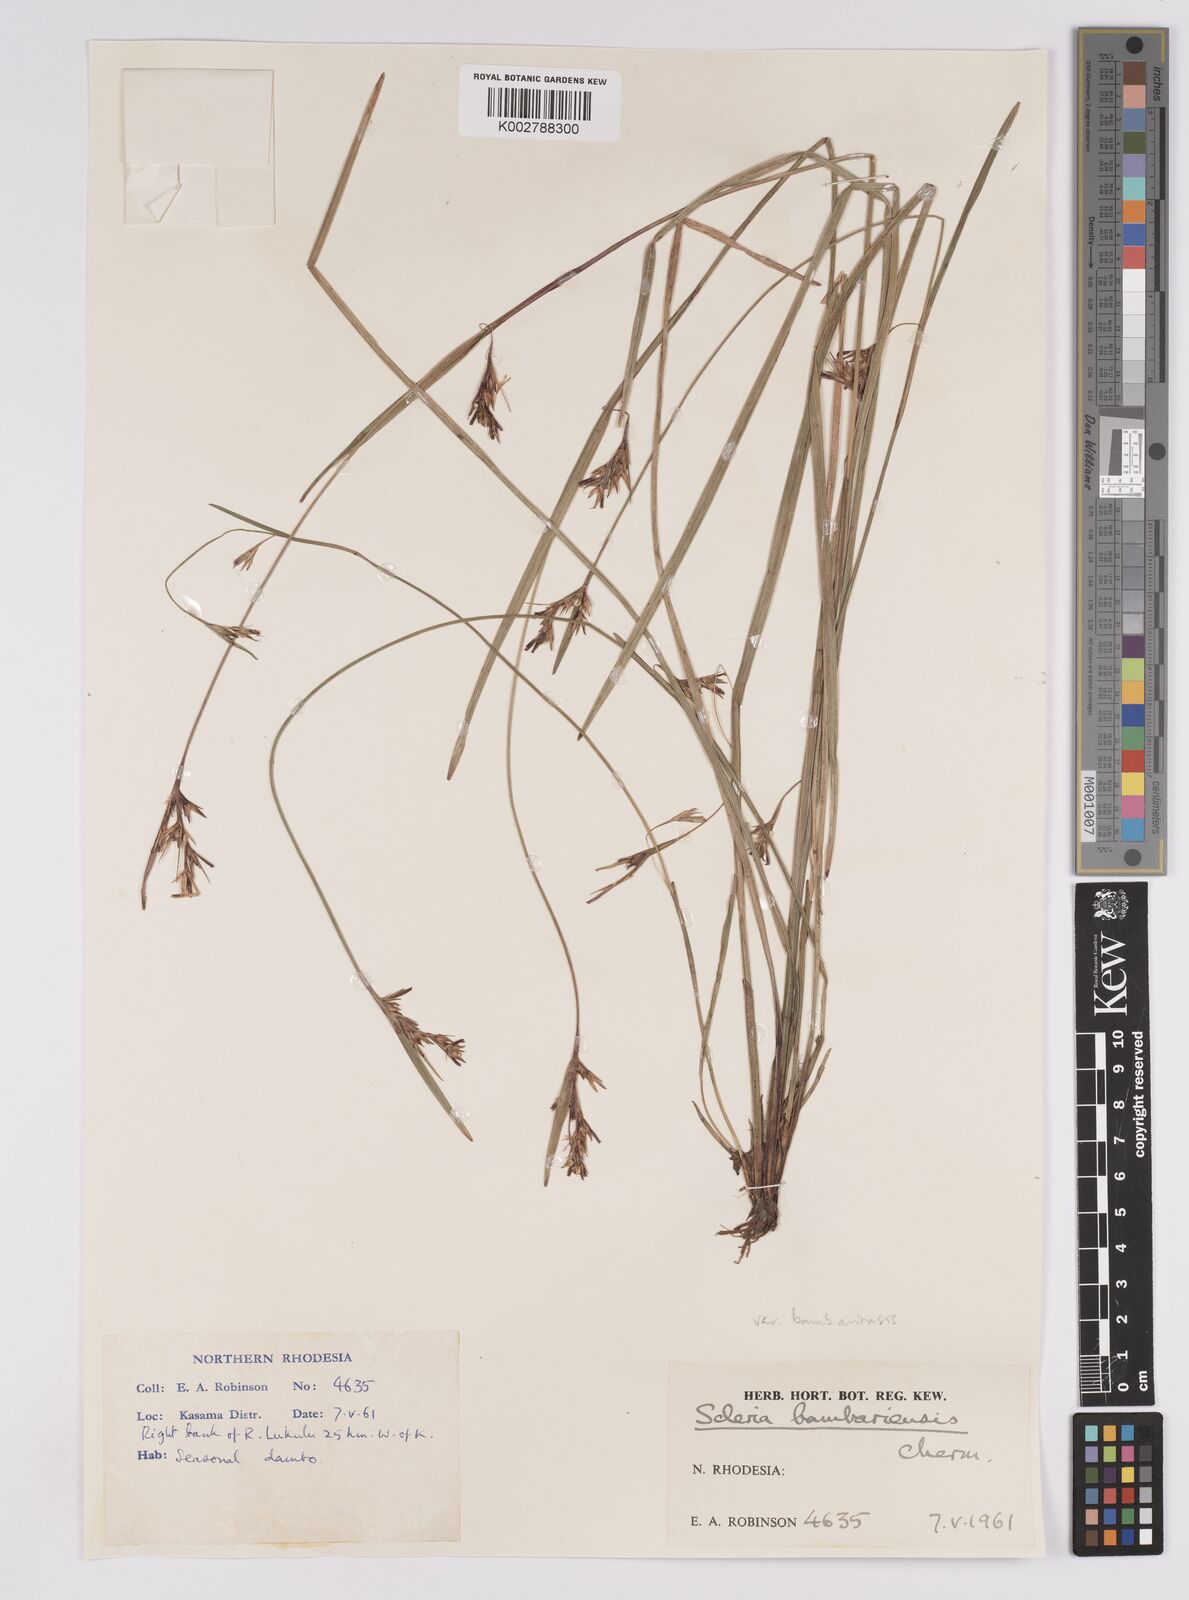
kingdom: Plantae
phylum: Tracheophyta
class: Liliopsida
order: Poales
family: Cyperaceae
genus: Scleria
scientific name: Scleria bambariensis
